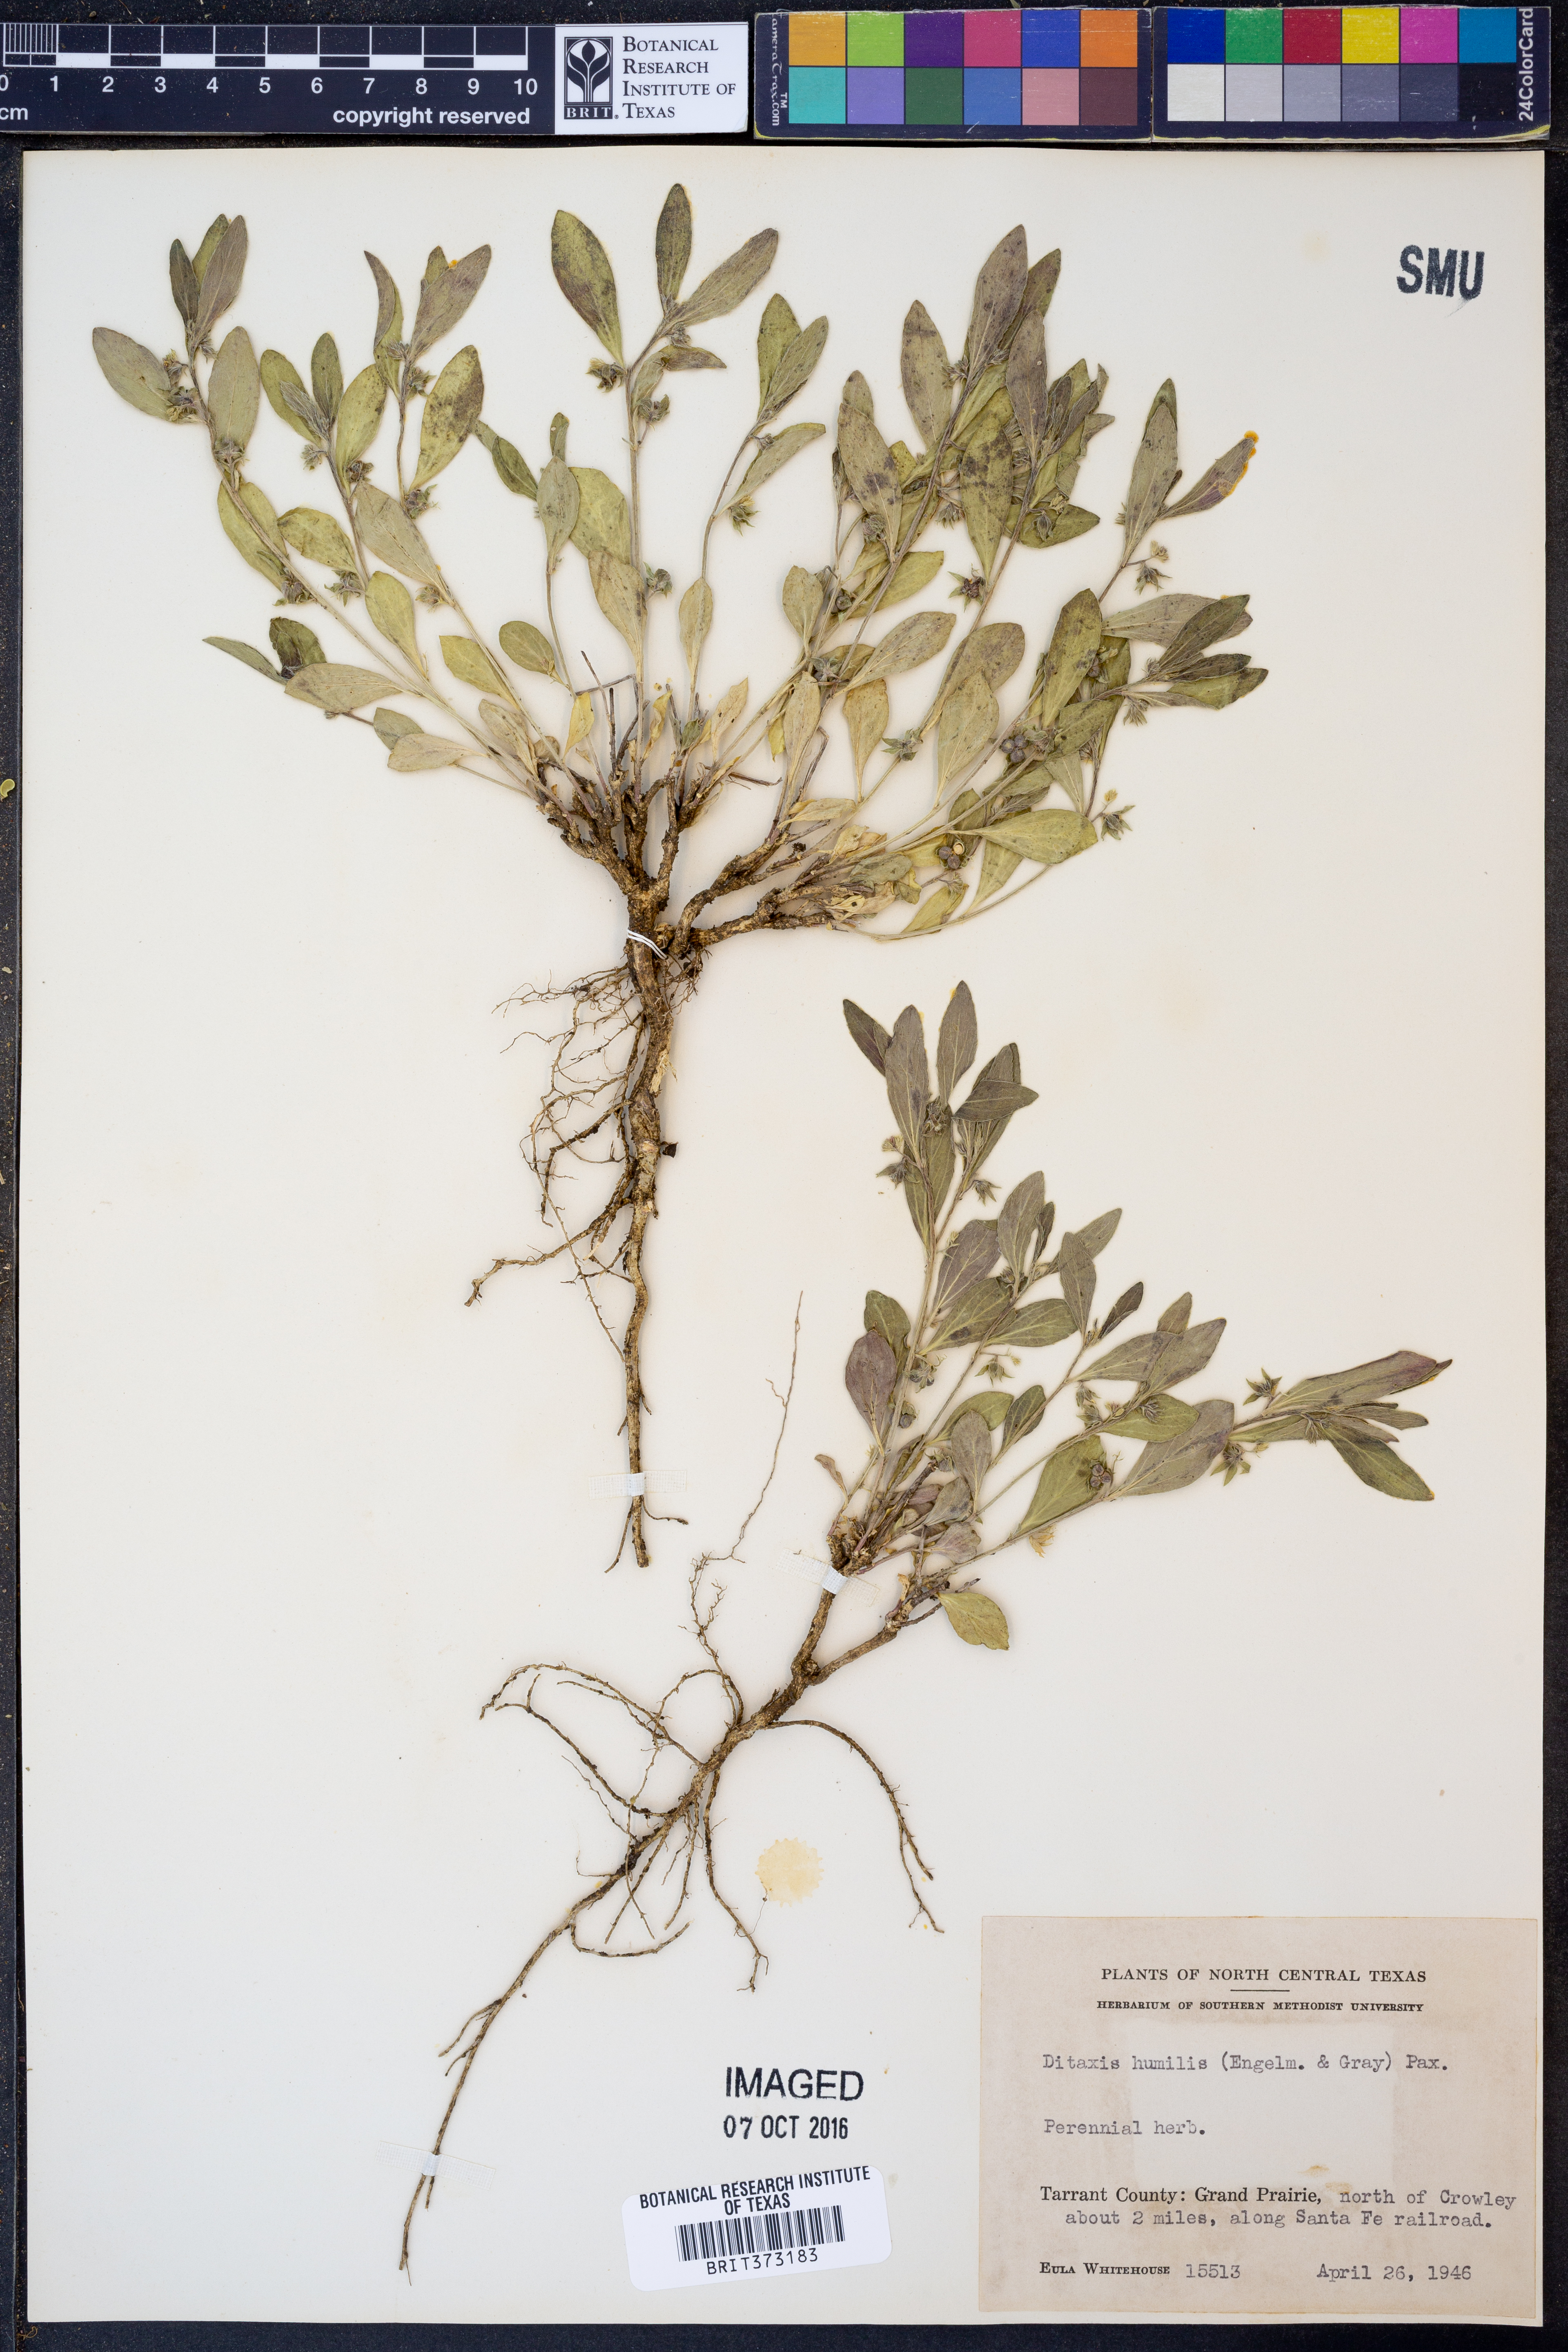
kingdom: Plantae
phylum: Tracheophyta
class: Magnoliopsida
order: Malpighiales
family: Euphorbiaceae
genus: Ditaxis
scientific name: Ditaxis humilis
